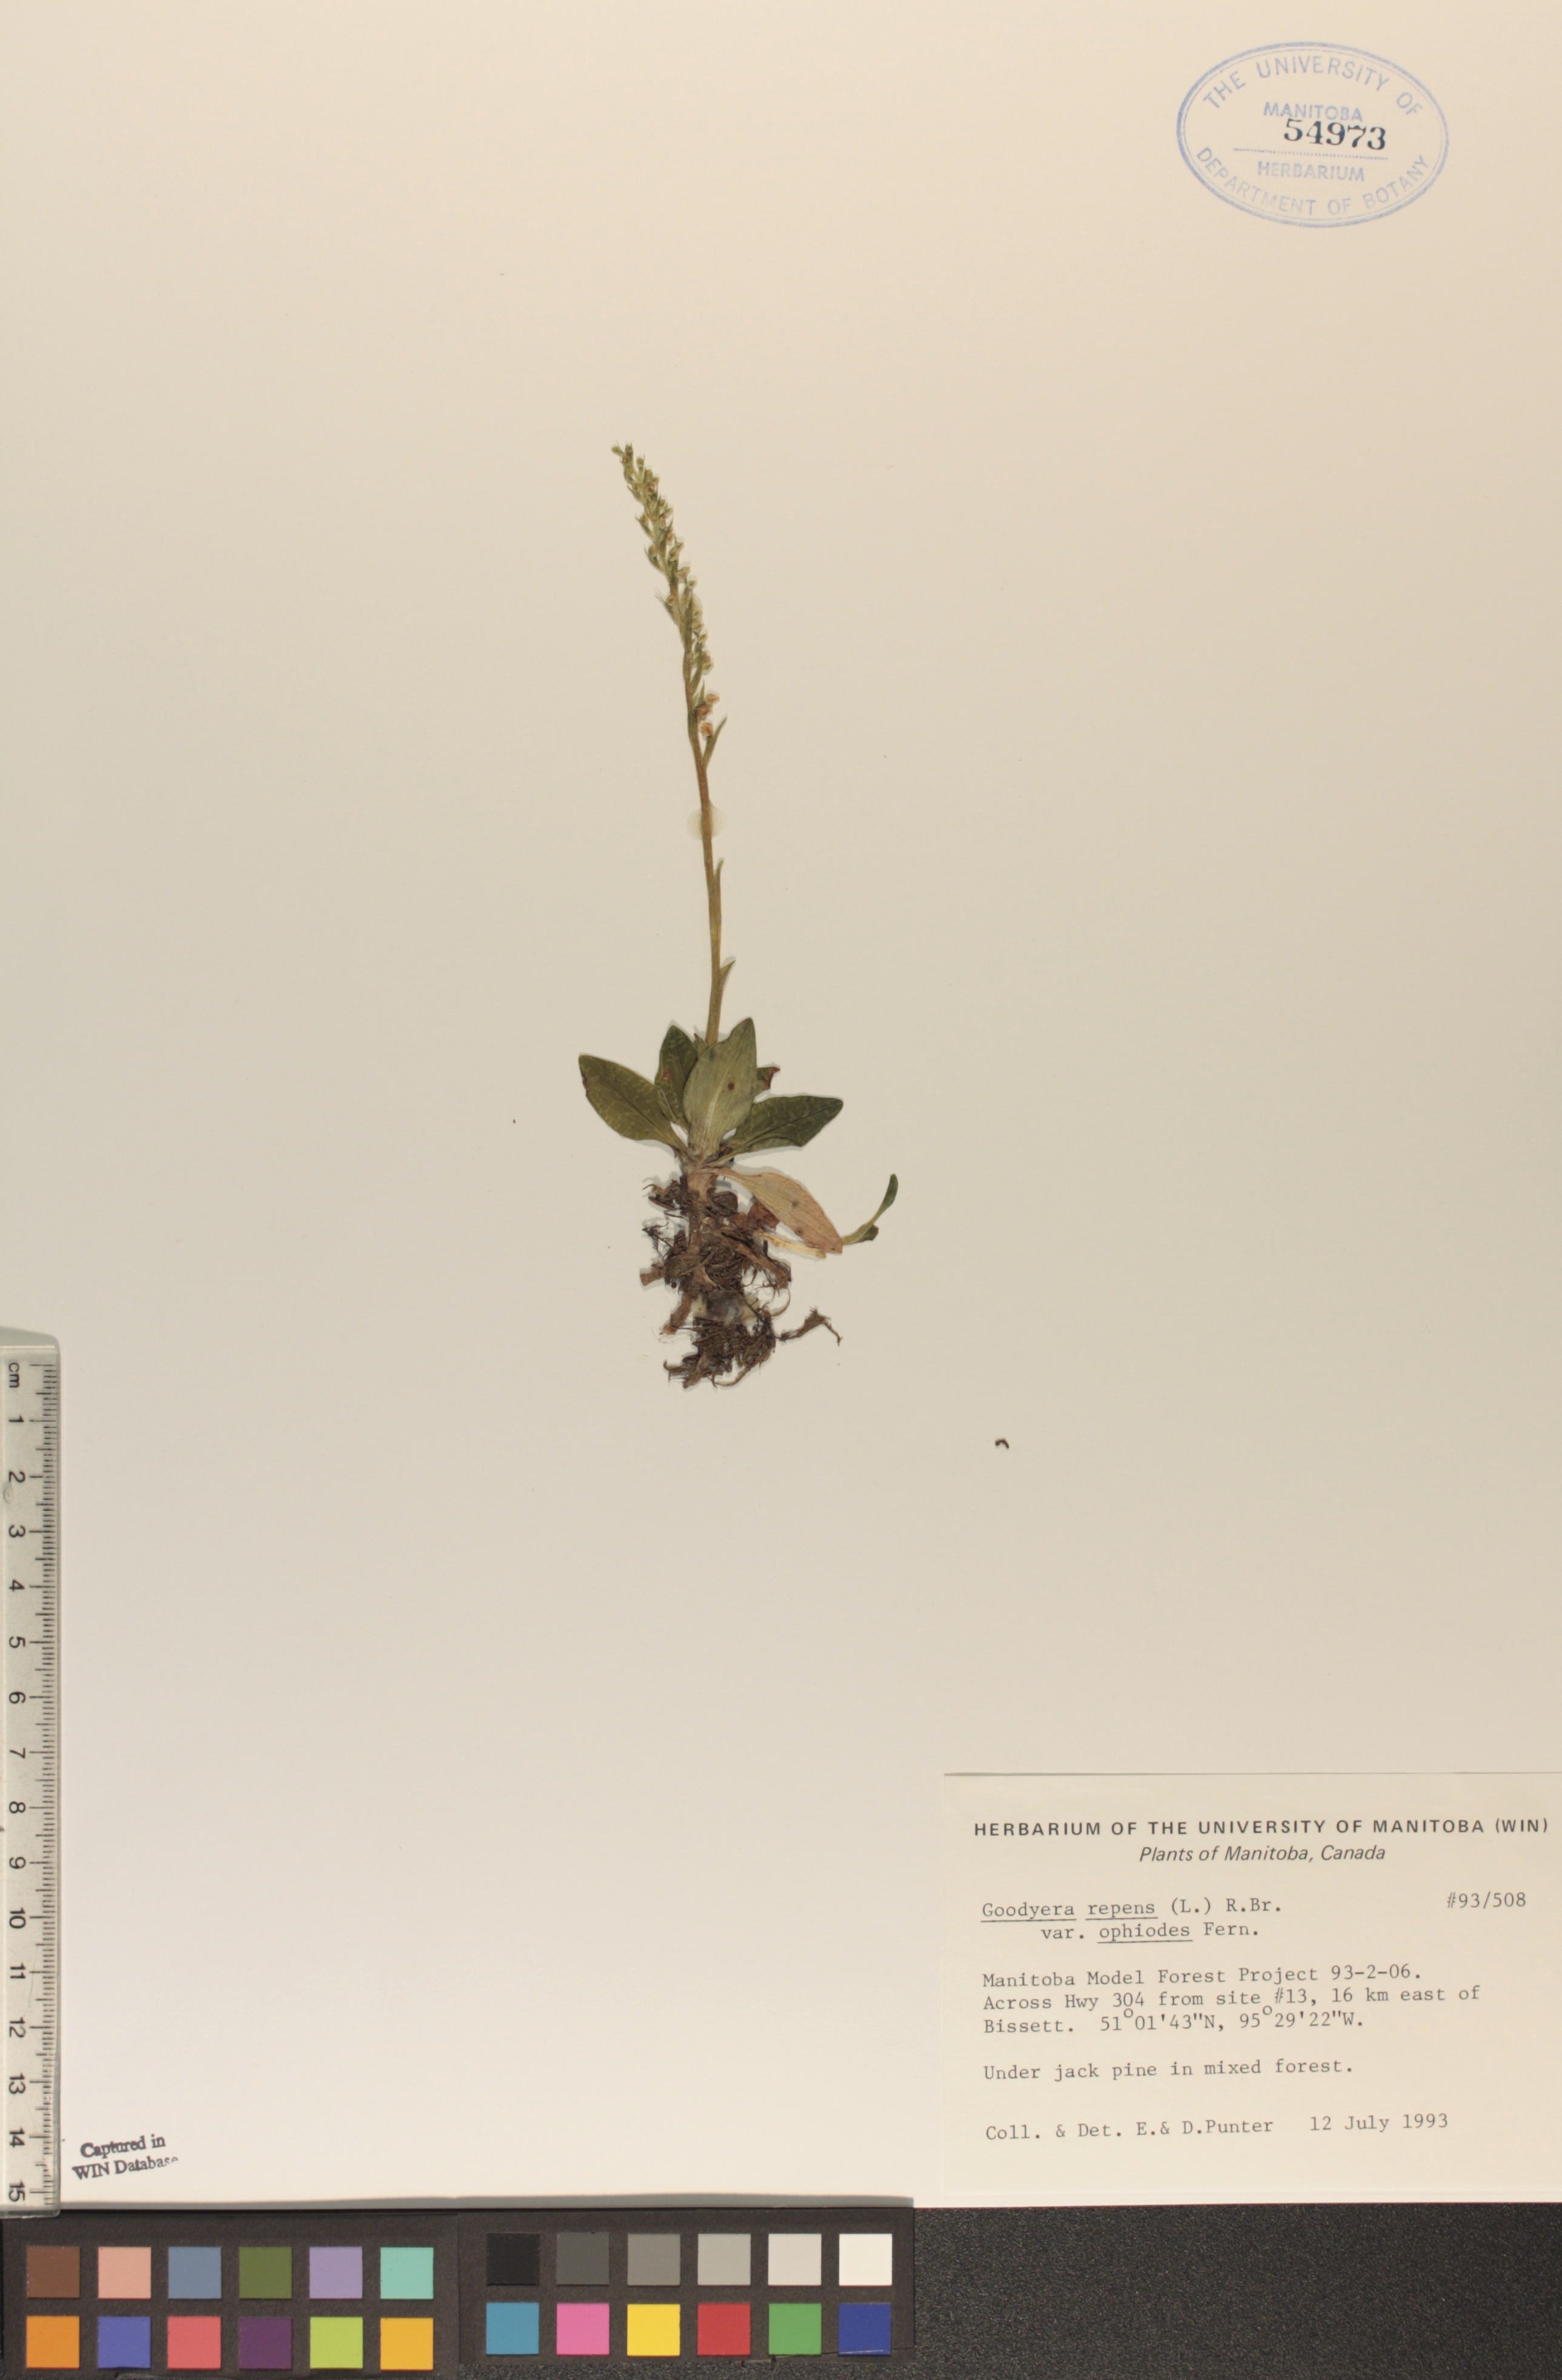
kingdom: Plantae
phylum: Tracheophyta
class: Liliopsida
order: Asparagales
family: Orchidaceae
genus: Goodyera
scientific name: Goodyera repens
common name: Creeping lady's-tresses
